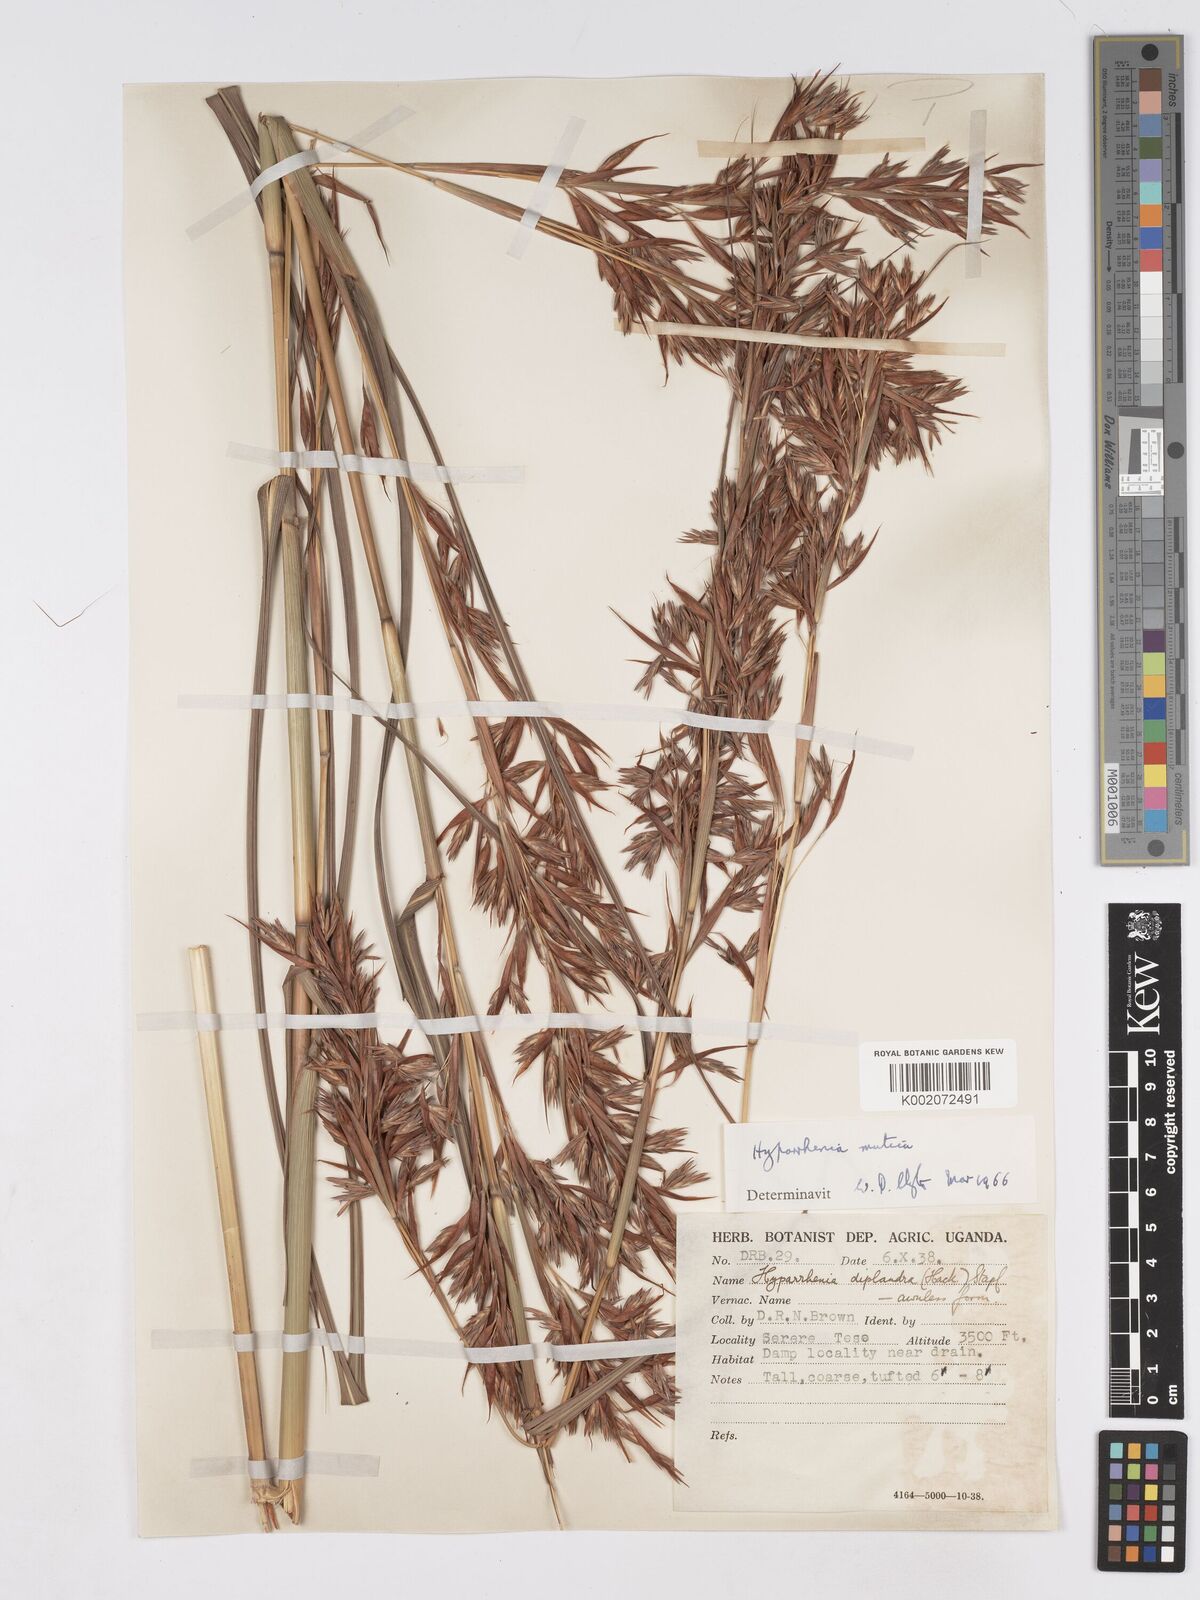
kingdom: Plantae
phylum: Tracheophyta
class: Liliopsida
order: Poales
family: Poaceae
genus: Hyparrhenia
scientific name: Hyparrhenia diplandra
